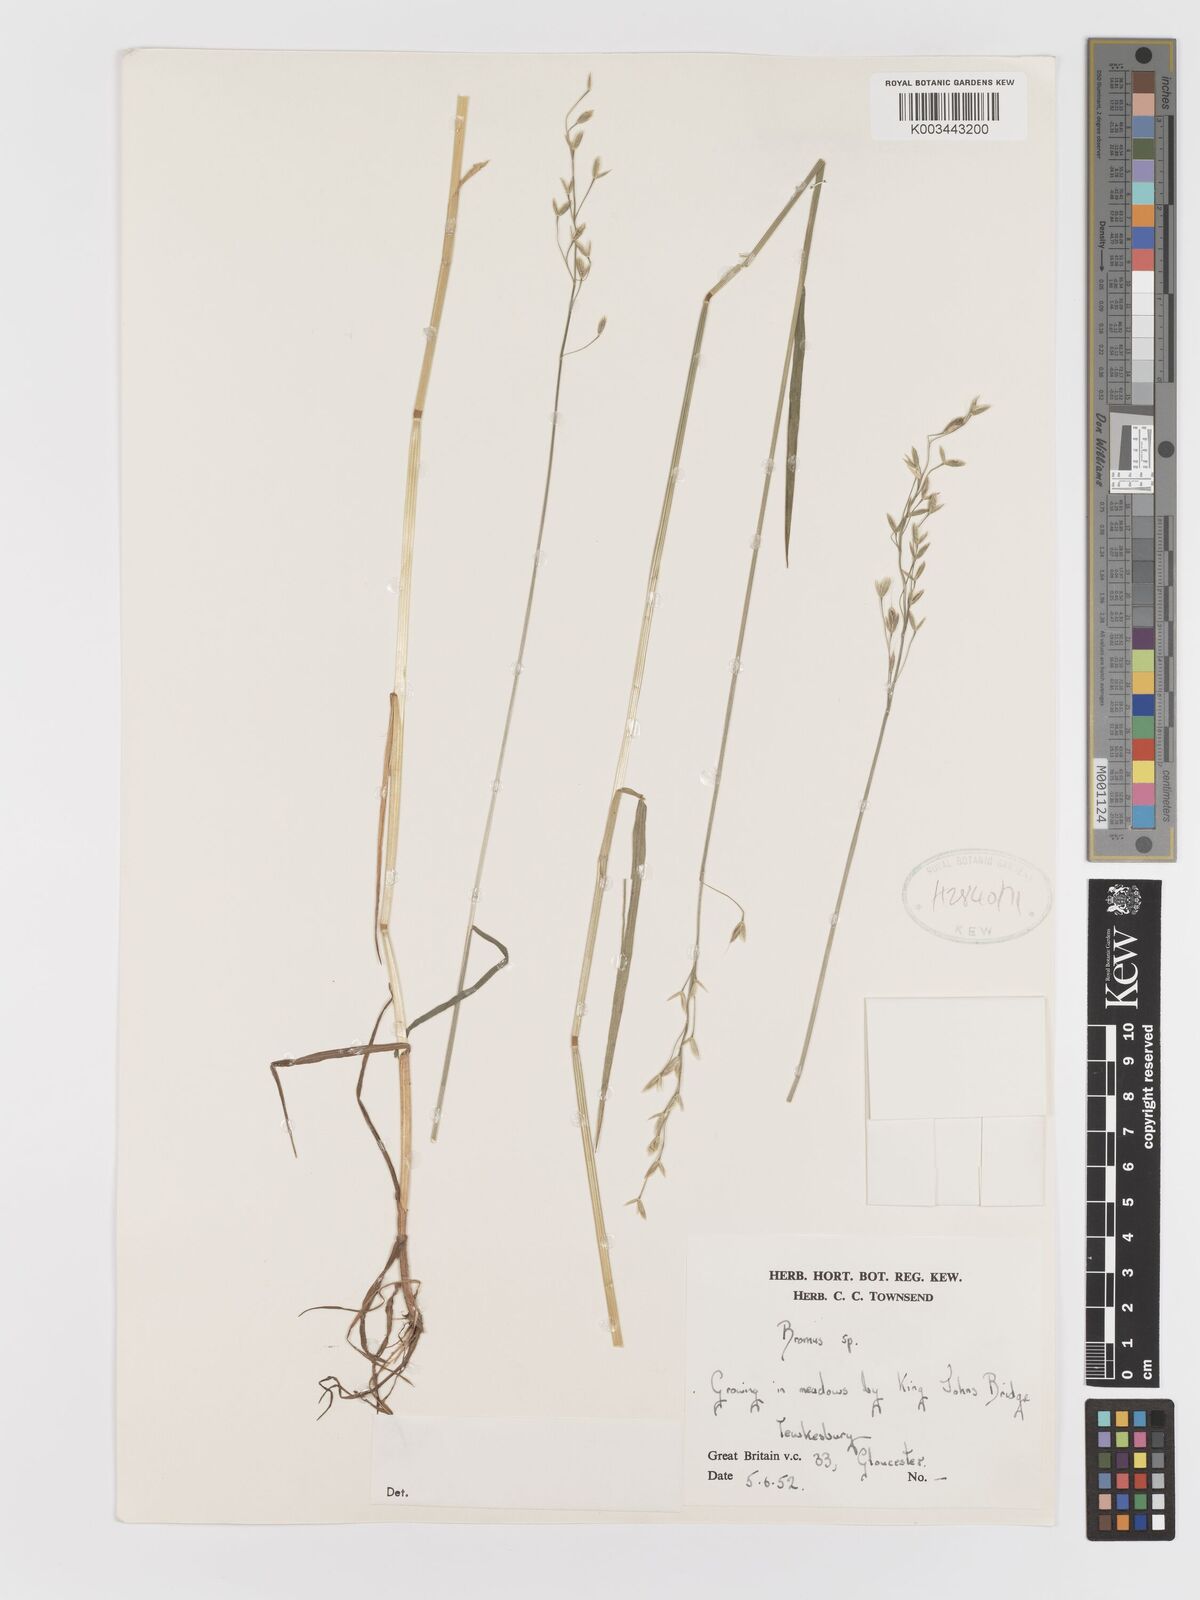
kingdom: Plantae
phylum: Tracheophyta
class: Liliopsida
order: Poales
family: Poaceae
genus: Bromus
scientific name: Bromus
